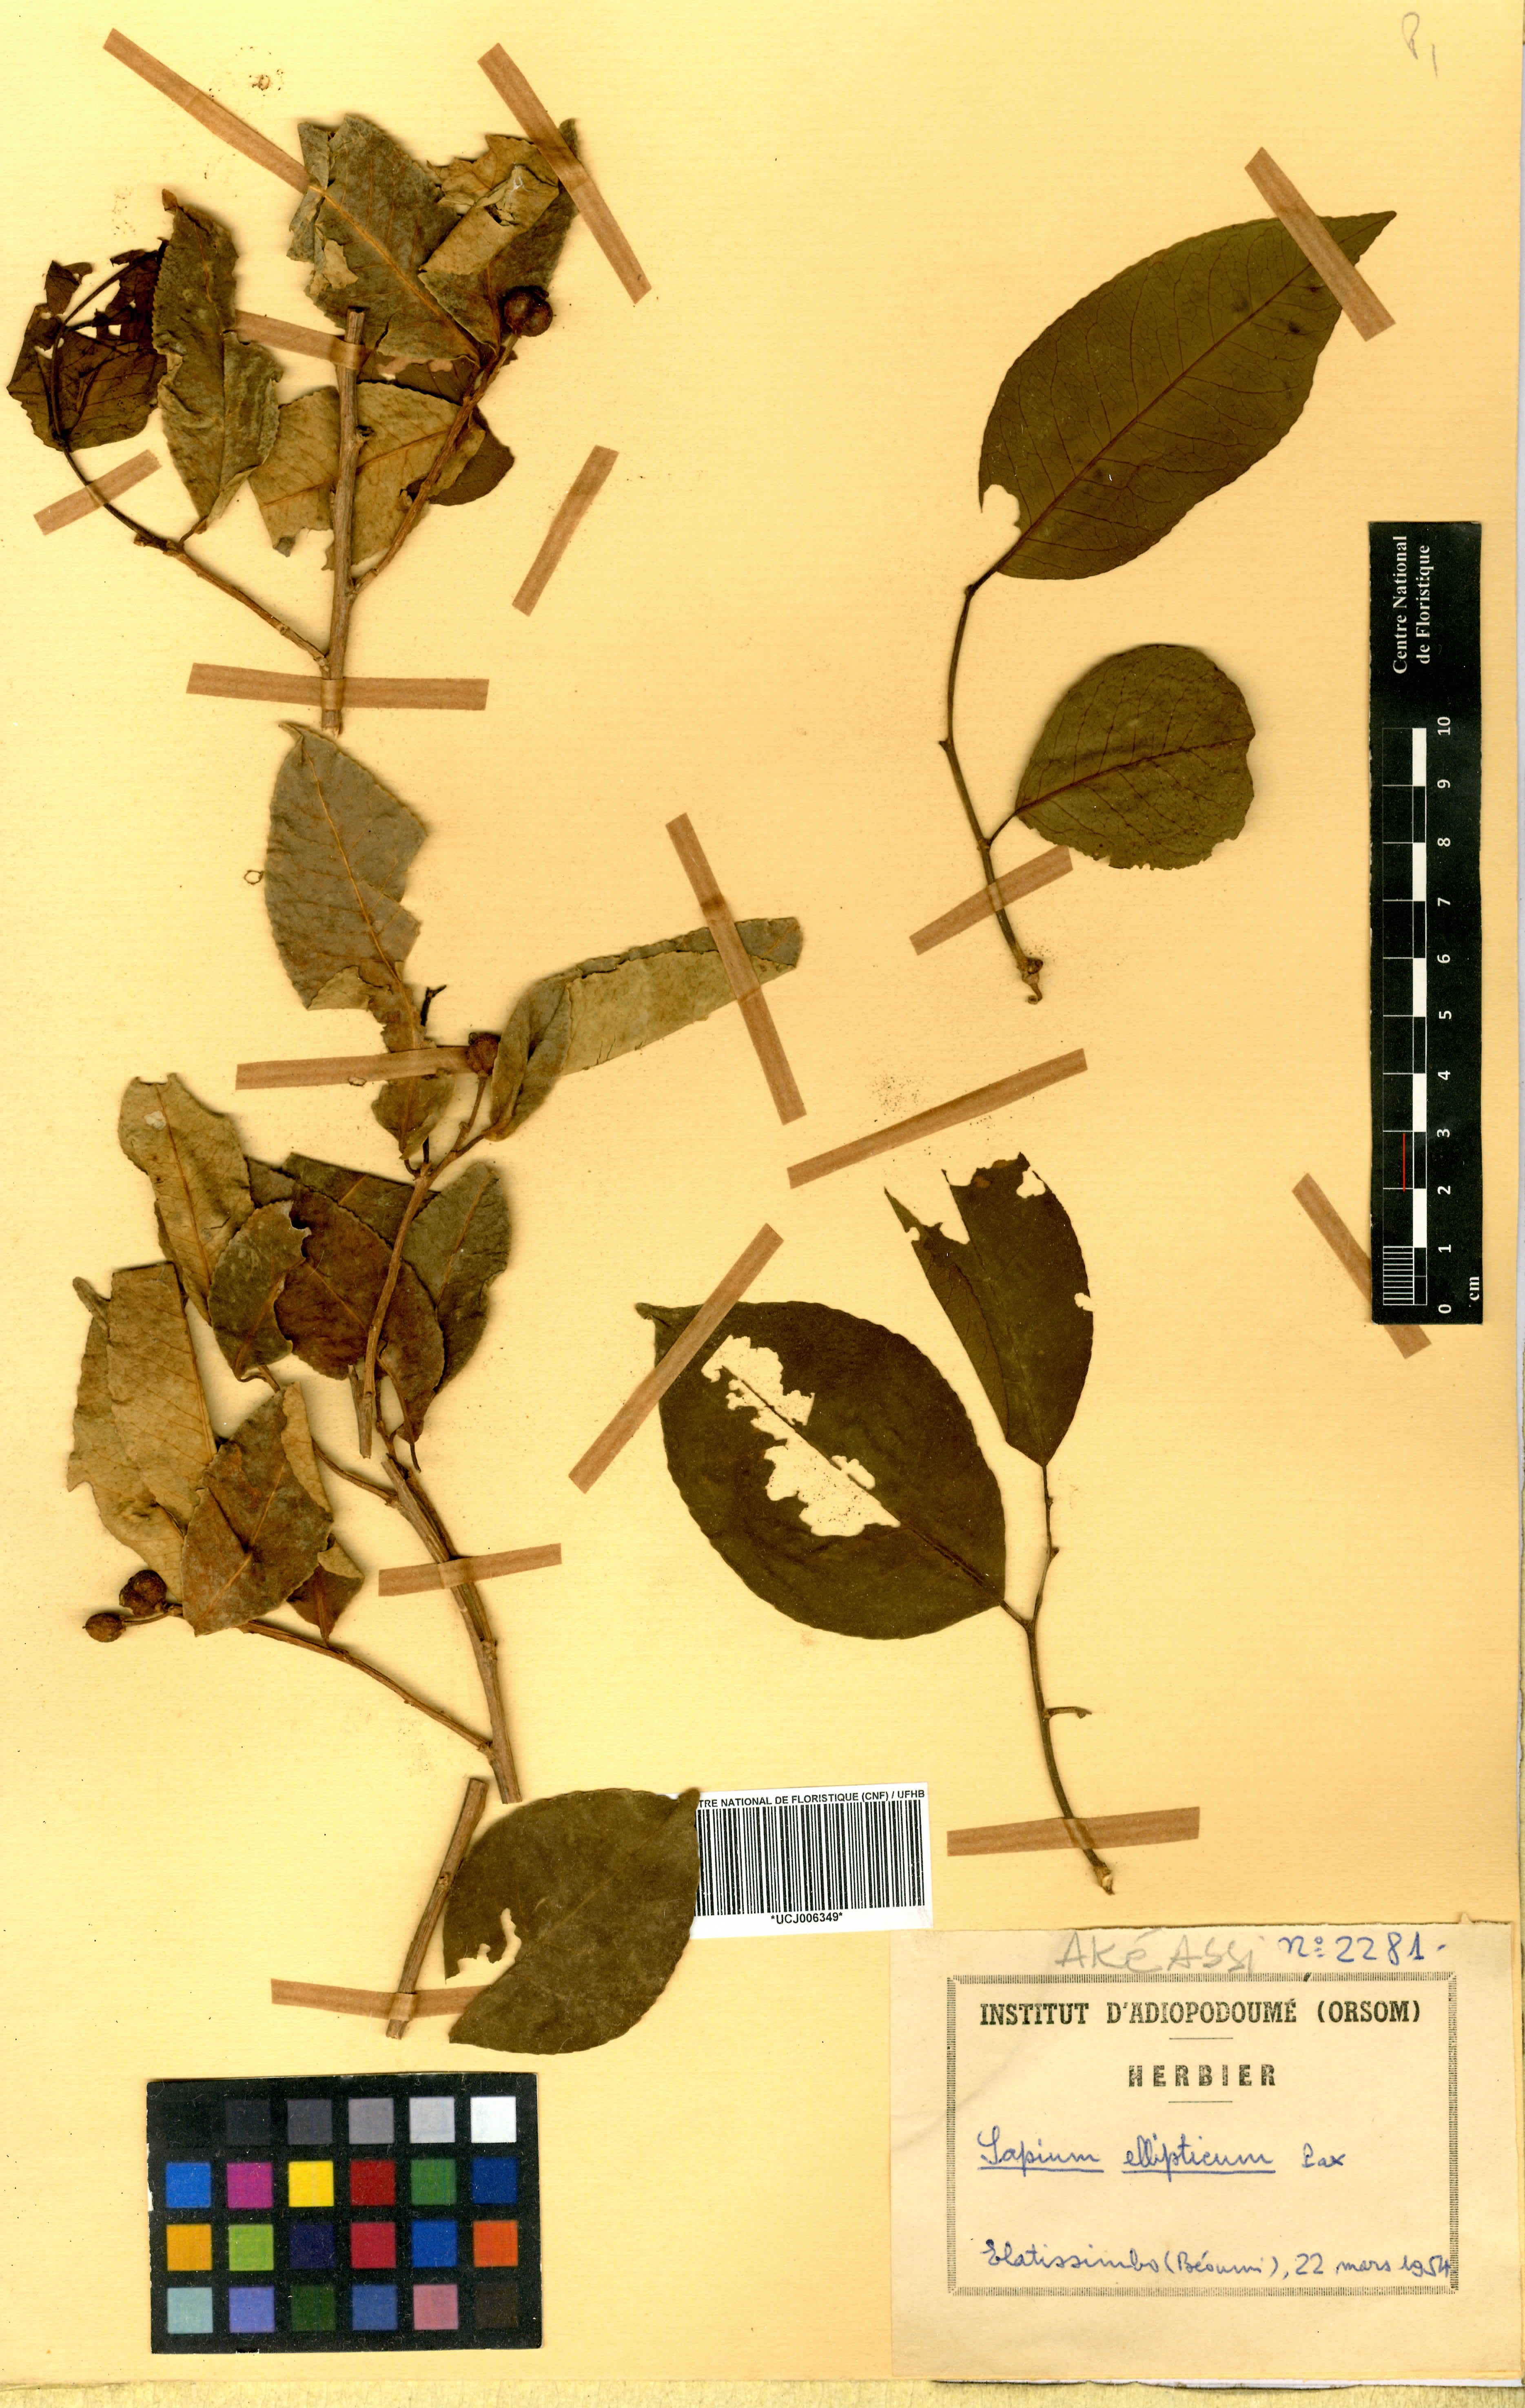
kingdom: Plantae
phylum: Tracheophyta
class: Magnoliopsida
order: Malpighiales
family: Euphorbiaceae
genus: Shirakiopsis
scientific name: Shirakiopsis elliptica
